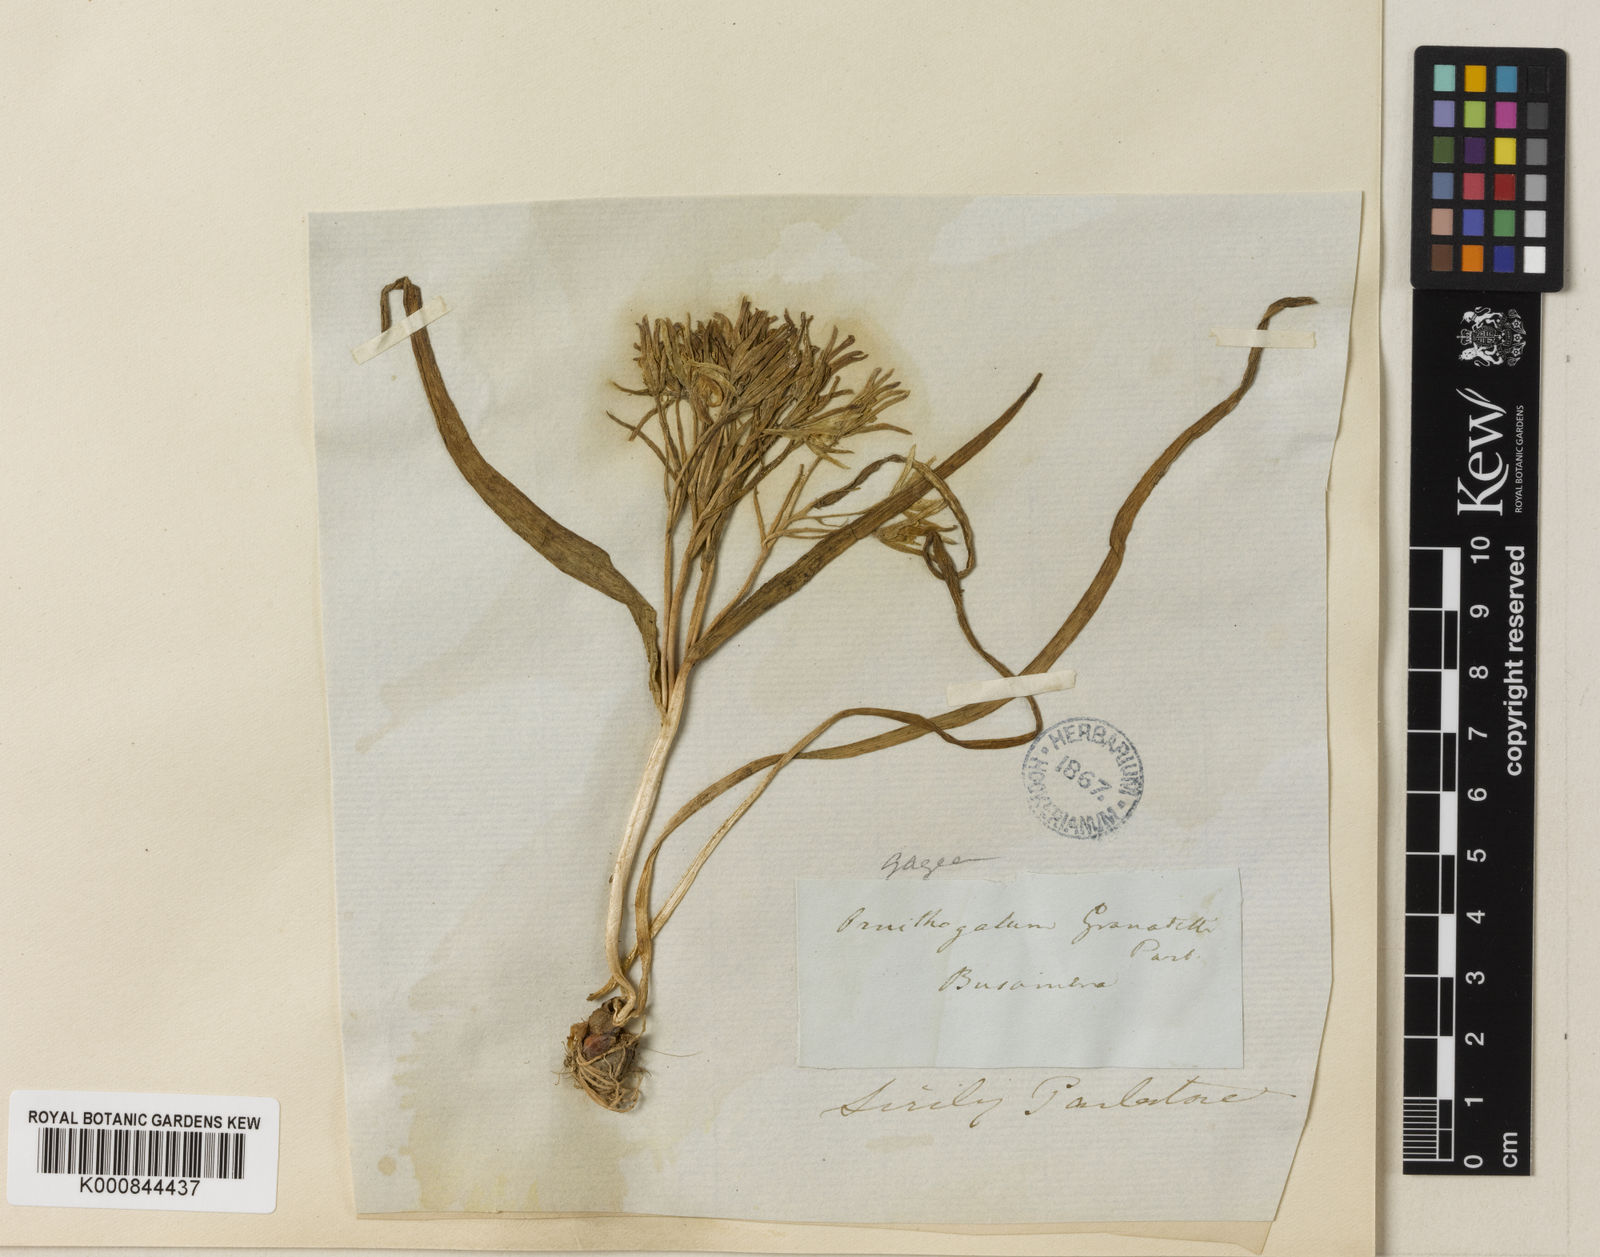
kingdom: Plantae
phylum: Tracheophyta
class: Liliopsida
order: Liliales
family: Liliaceae
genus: Gagea
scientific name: Gagea
